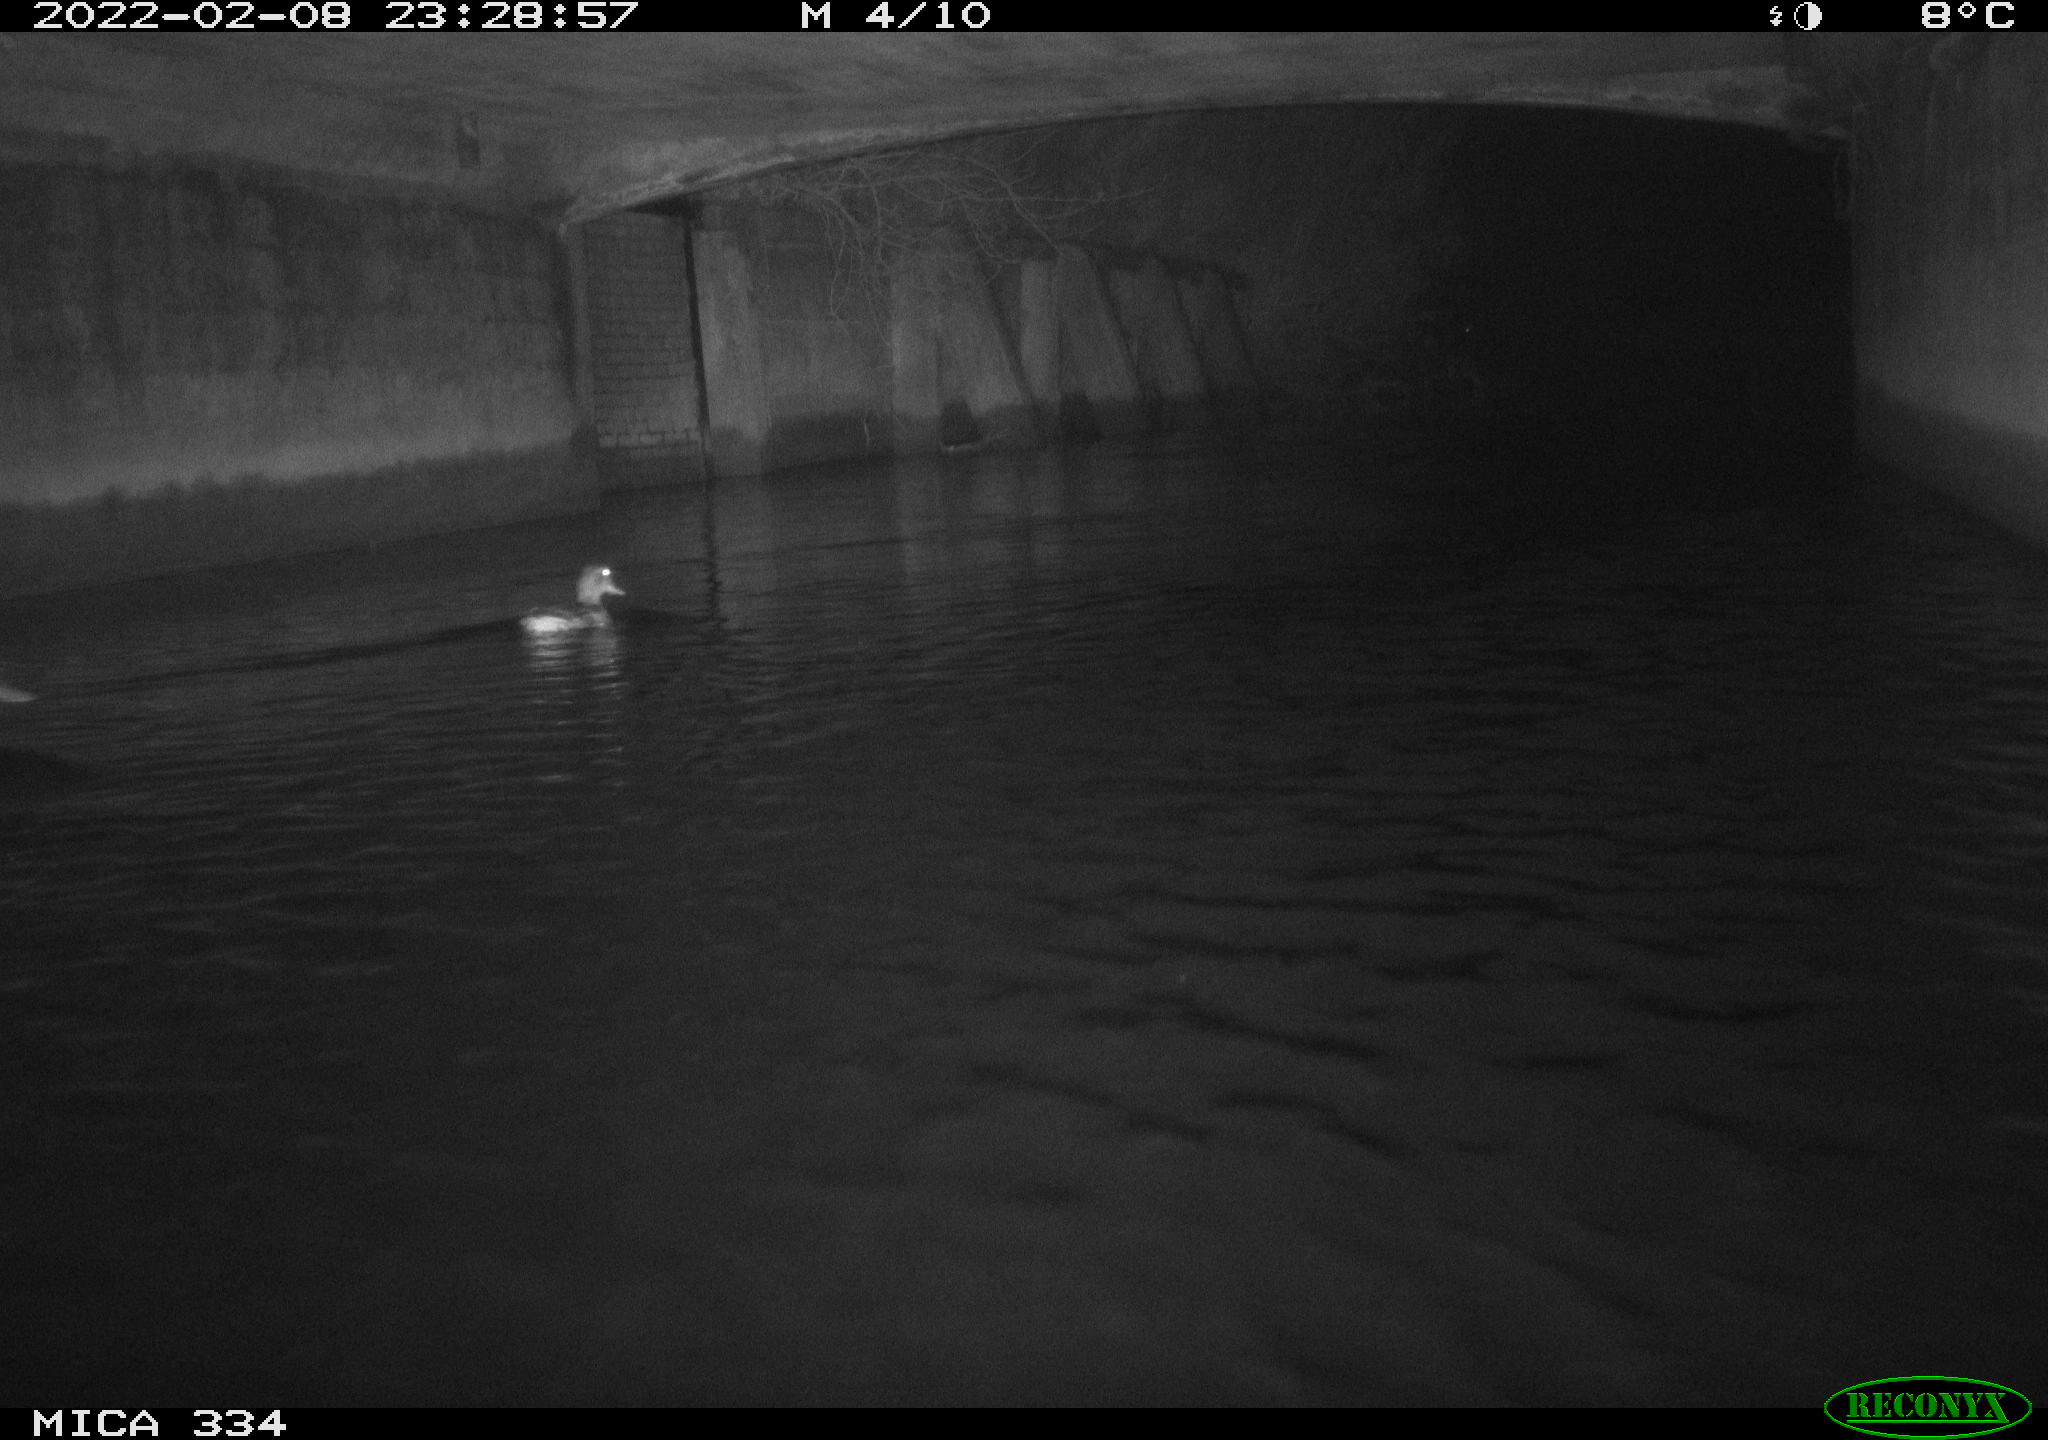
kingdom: Animalia
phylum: Chordata
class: Aves
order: Anseriformes
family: Anatidae
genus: Anas
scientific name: Anas platyrhynchos
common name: Mallard
